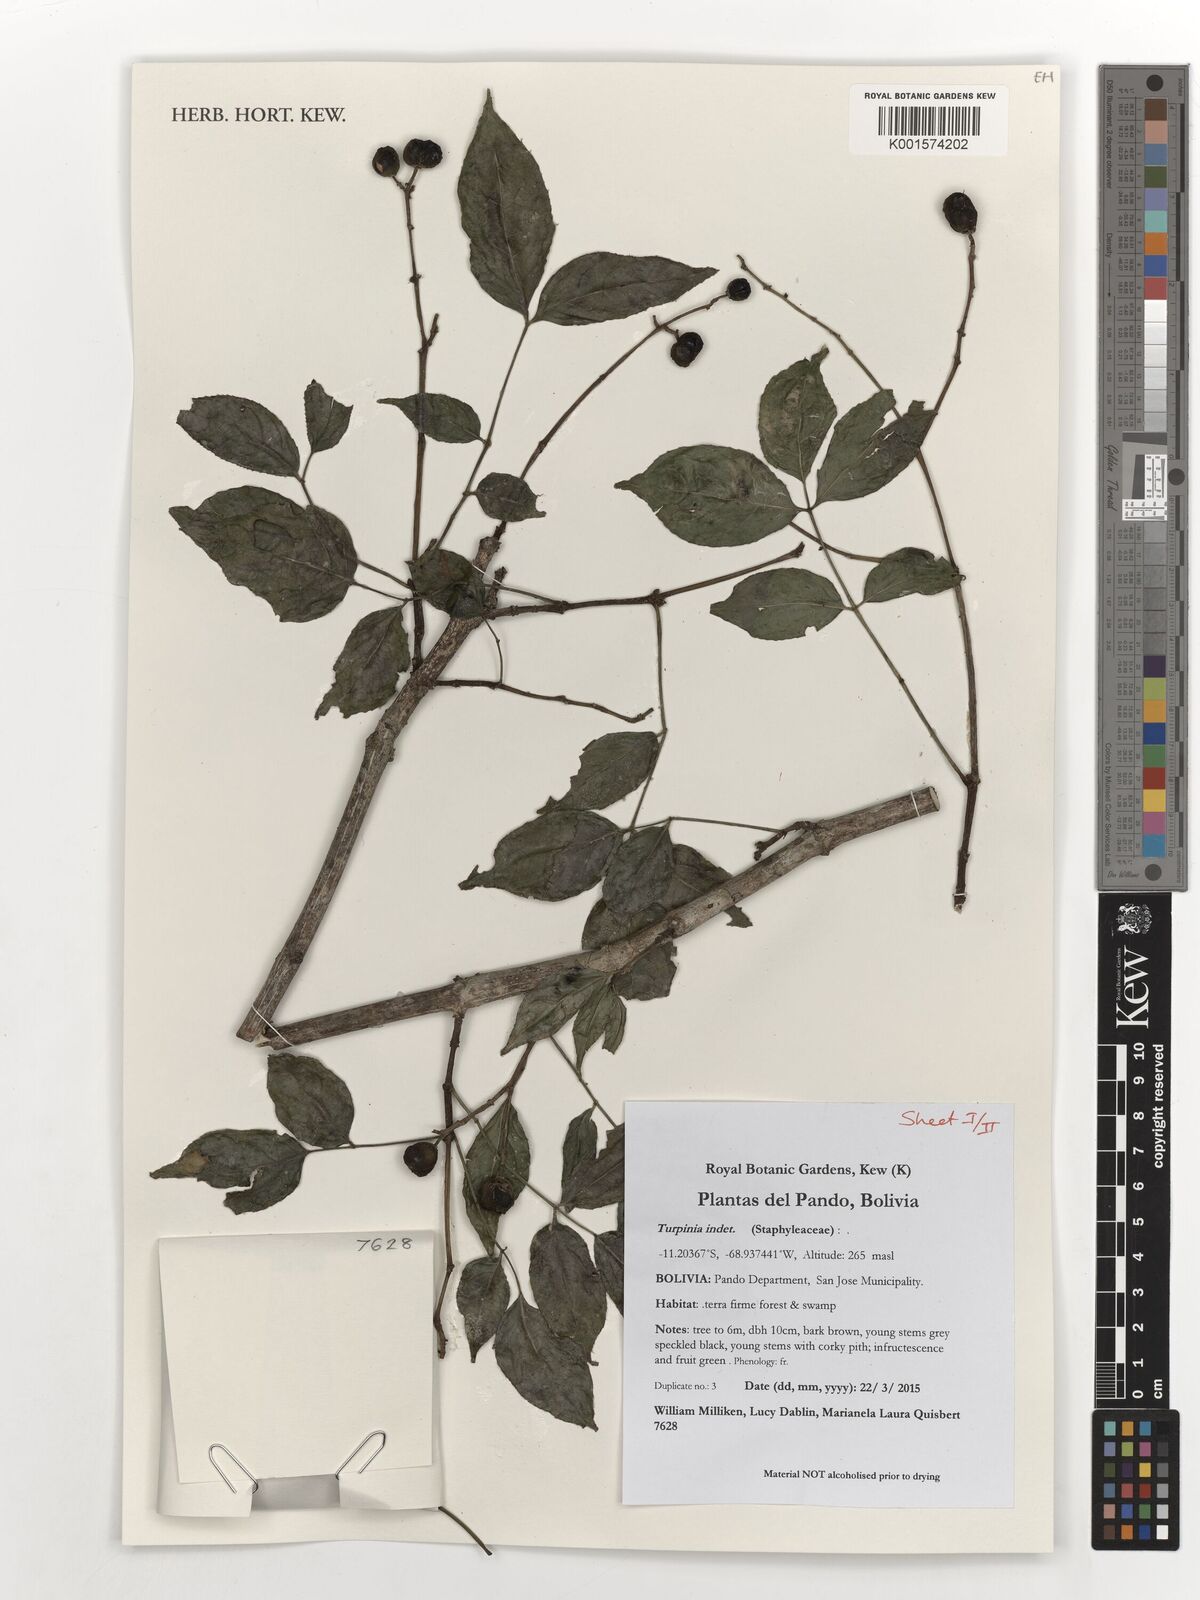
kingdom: Plantae
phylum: Tracheophyta
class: Magnoliopsida
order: Crossosomatales
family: Staphyleaceae
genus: Turpinia
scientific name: Turpinia
